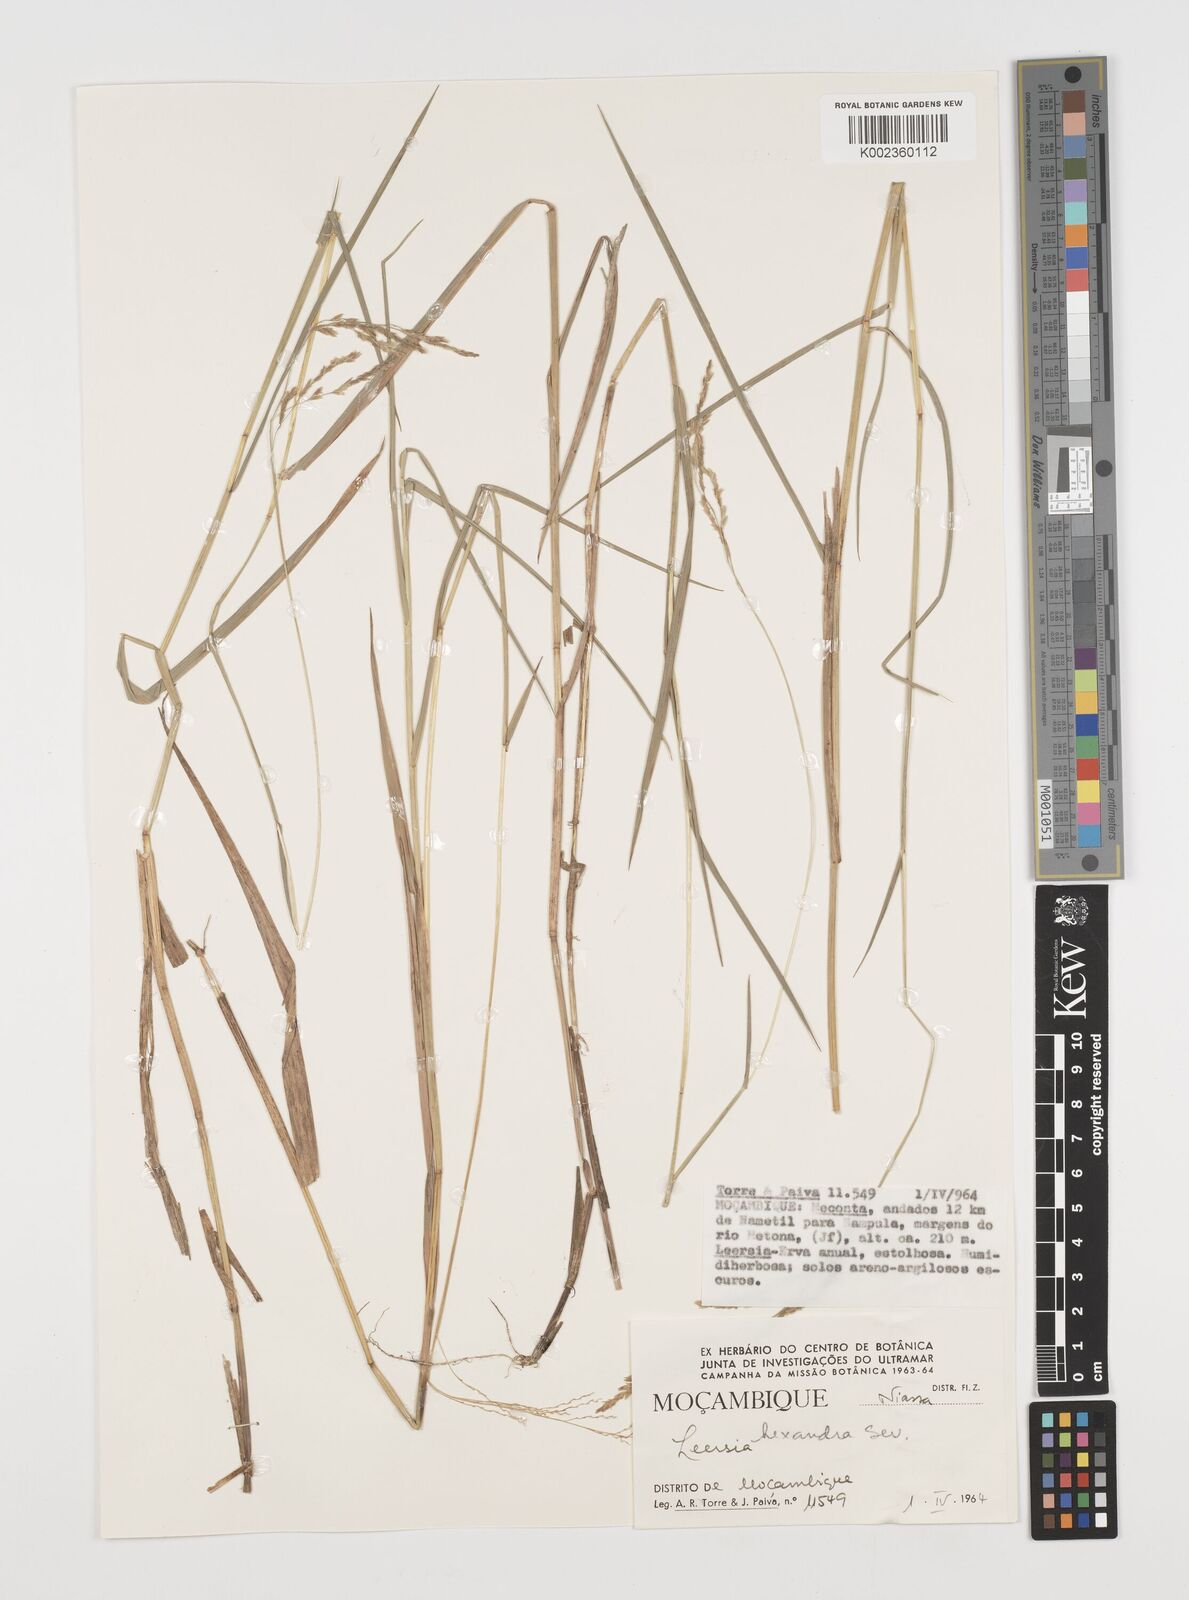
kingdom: Plantae
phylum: Tracheophyta
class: Liliopsida
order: Poales
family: Poaceae
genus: Leersia
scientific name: Leersia hexandra
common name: Southern cut grass
